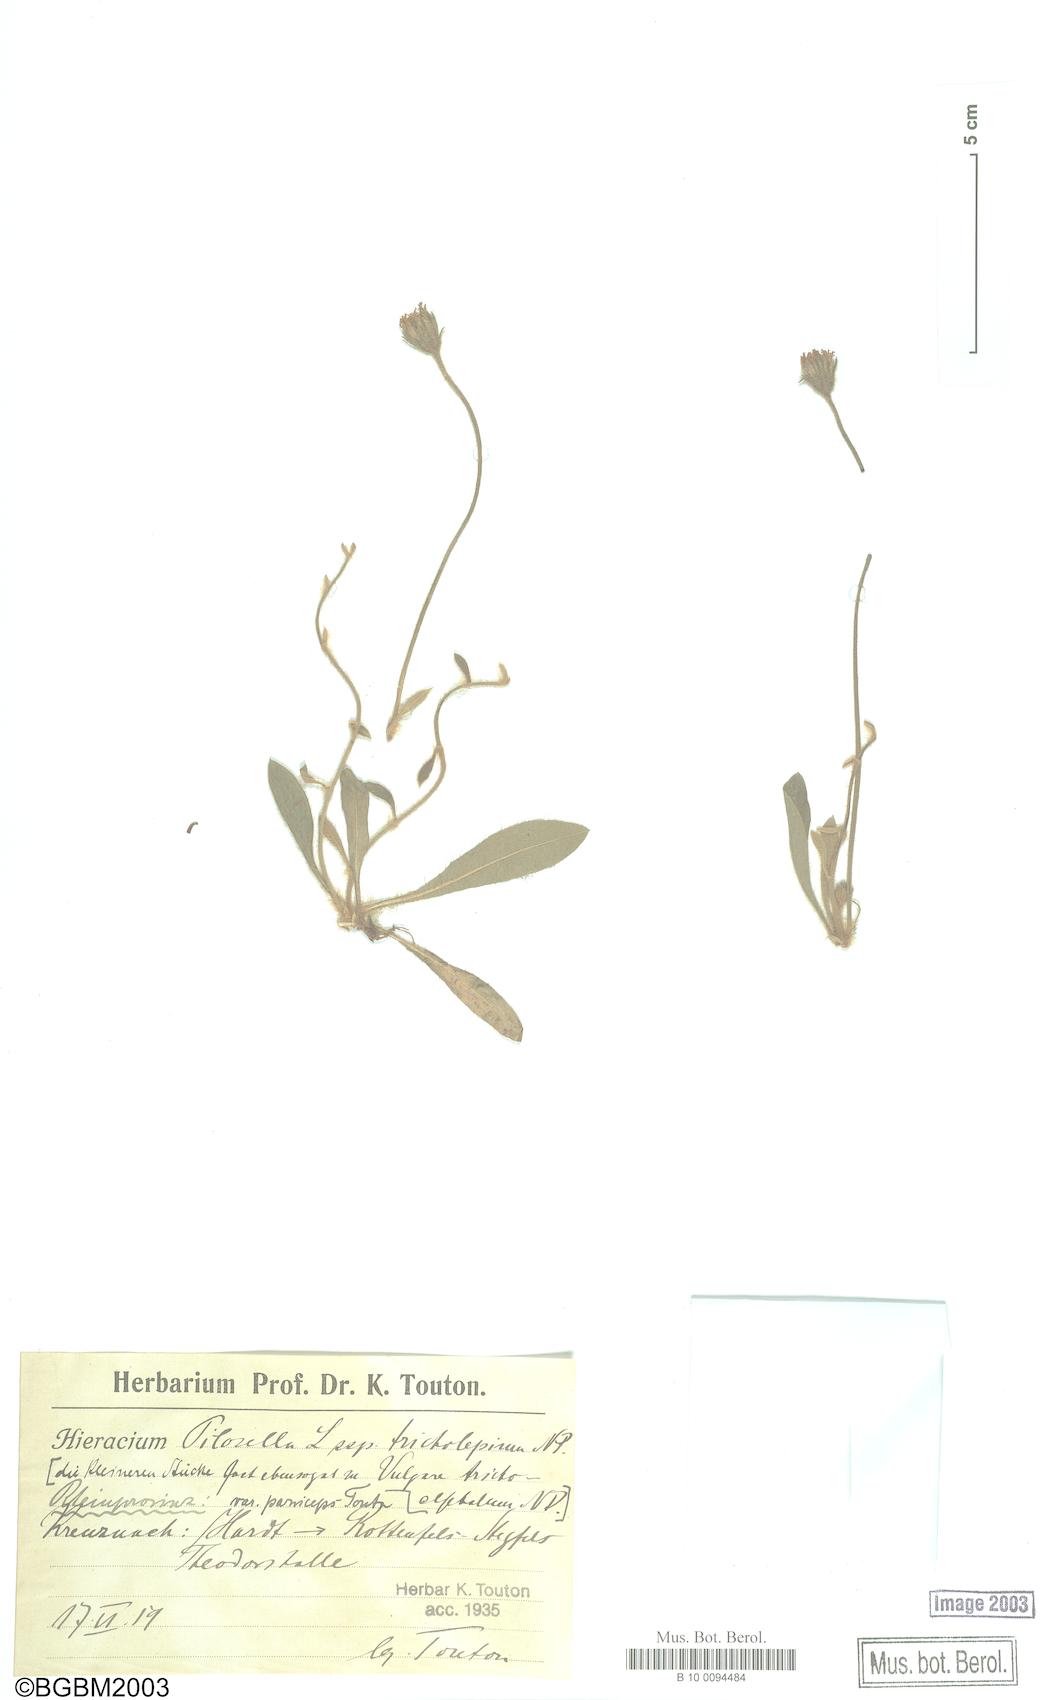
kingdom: Plantae
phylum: Tracheophyta
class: Magnoliopsida
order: Asterales
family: Asteraceae
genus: Pilosella
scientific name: Pilosella officinarum
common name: Mouse-ear hawkweed
